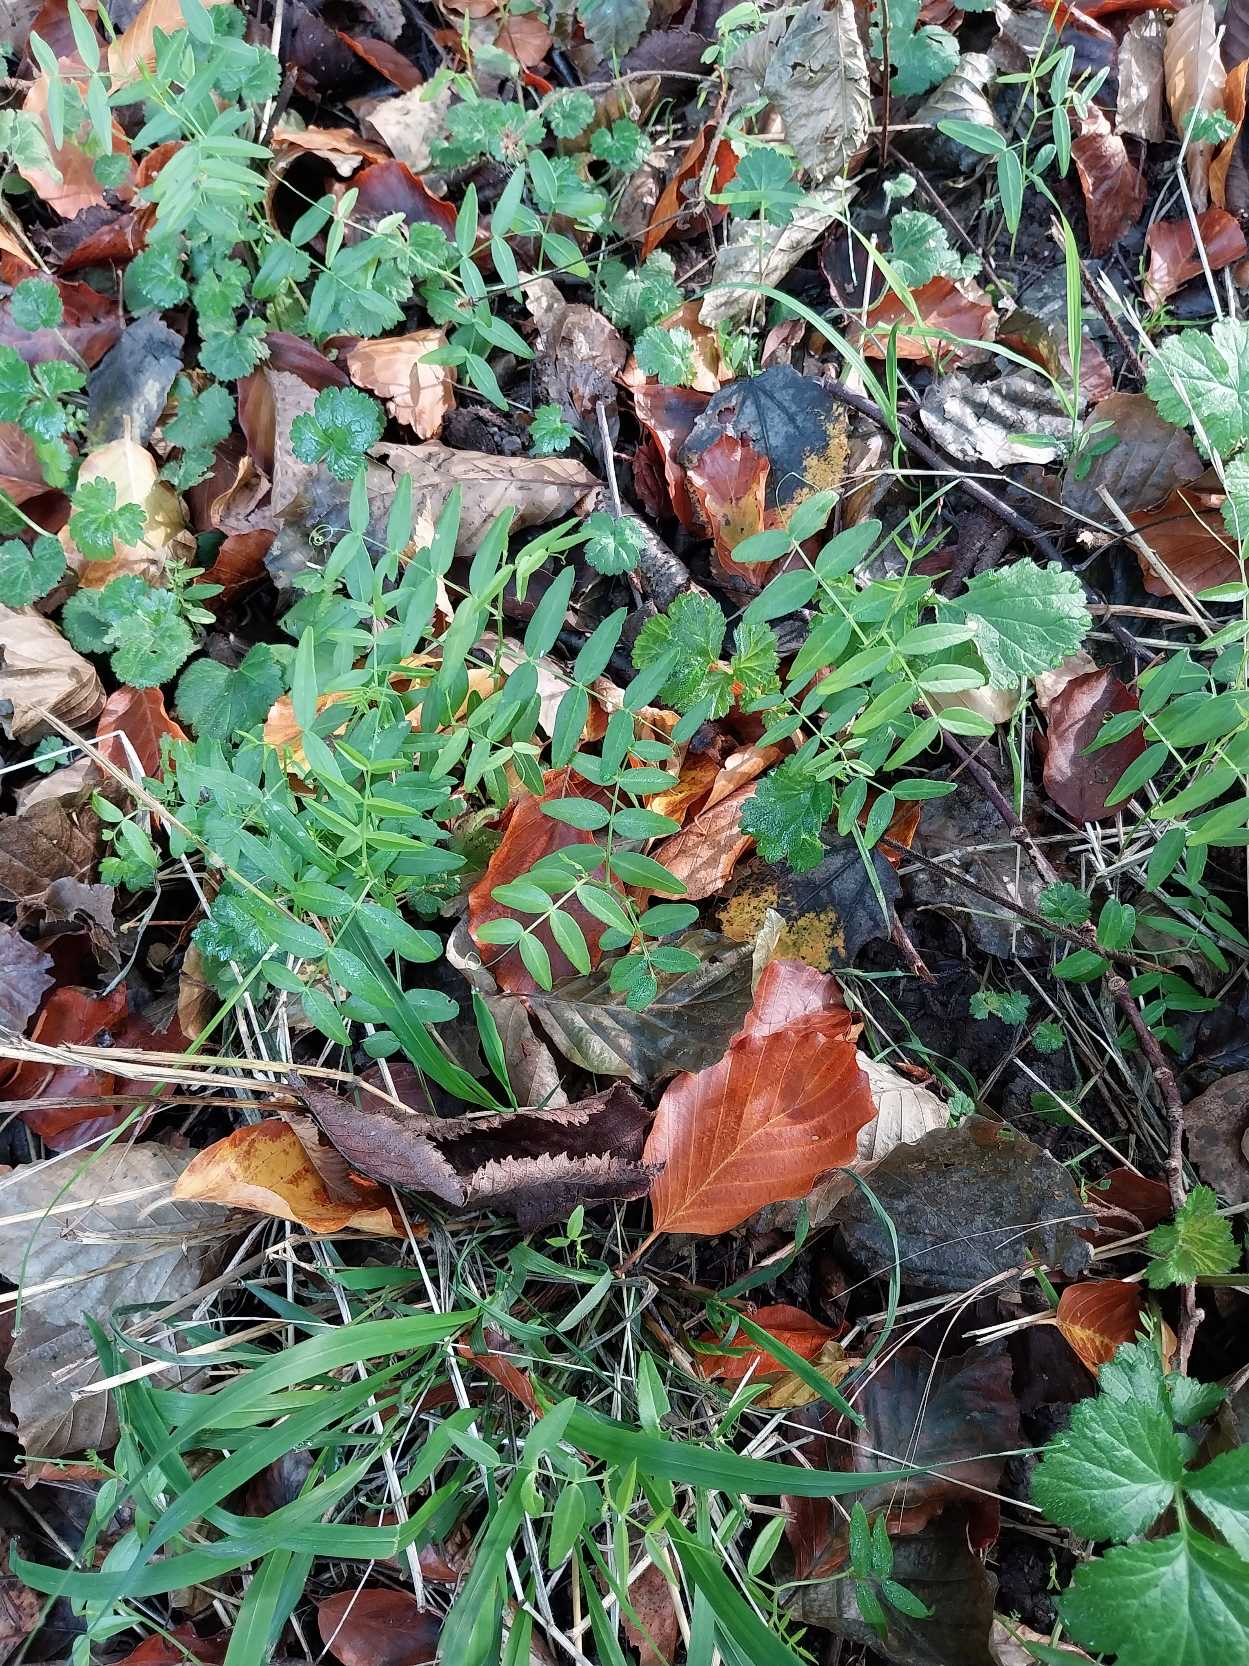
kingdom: Plantae
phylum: Tracheophyta
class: Magnoliopsida
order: Fabales
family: Fabaceae
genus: Vicia
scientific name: Vicia sepium
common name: Gærde-vikke
